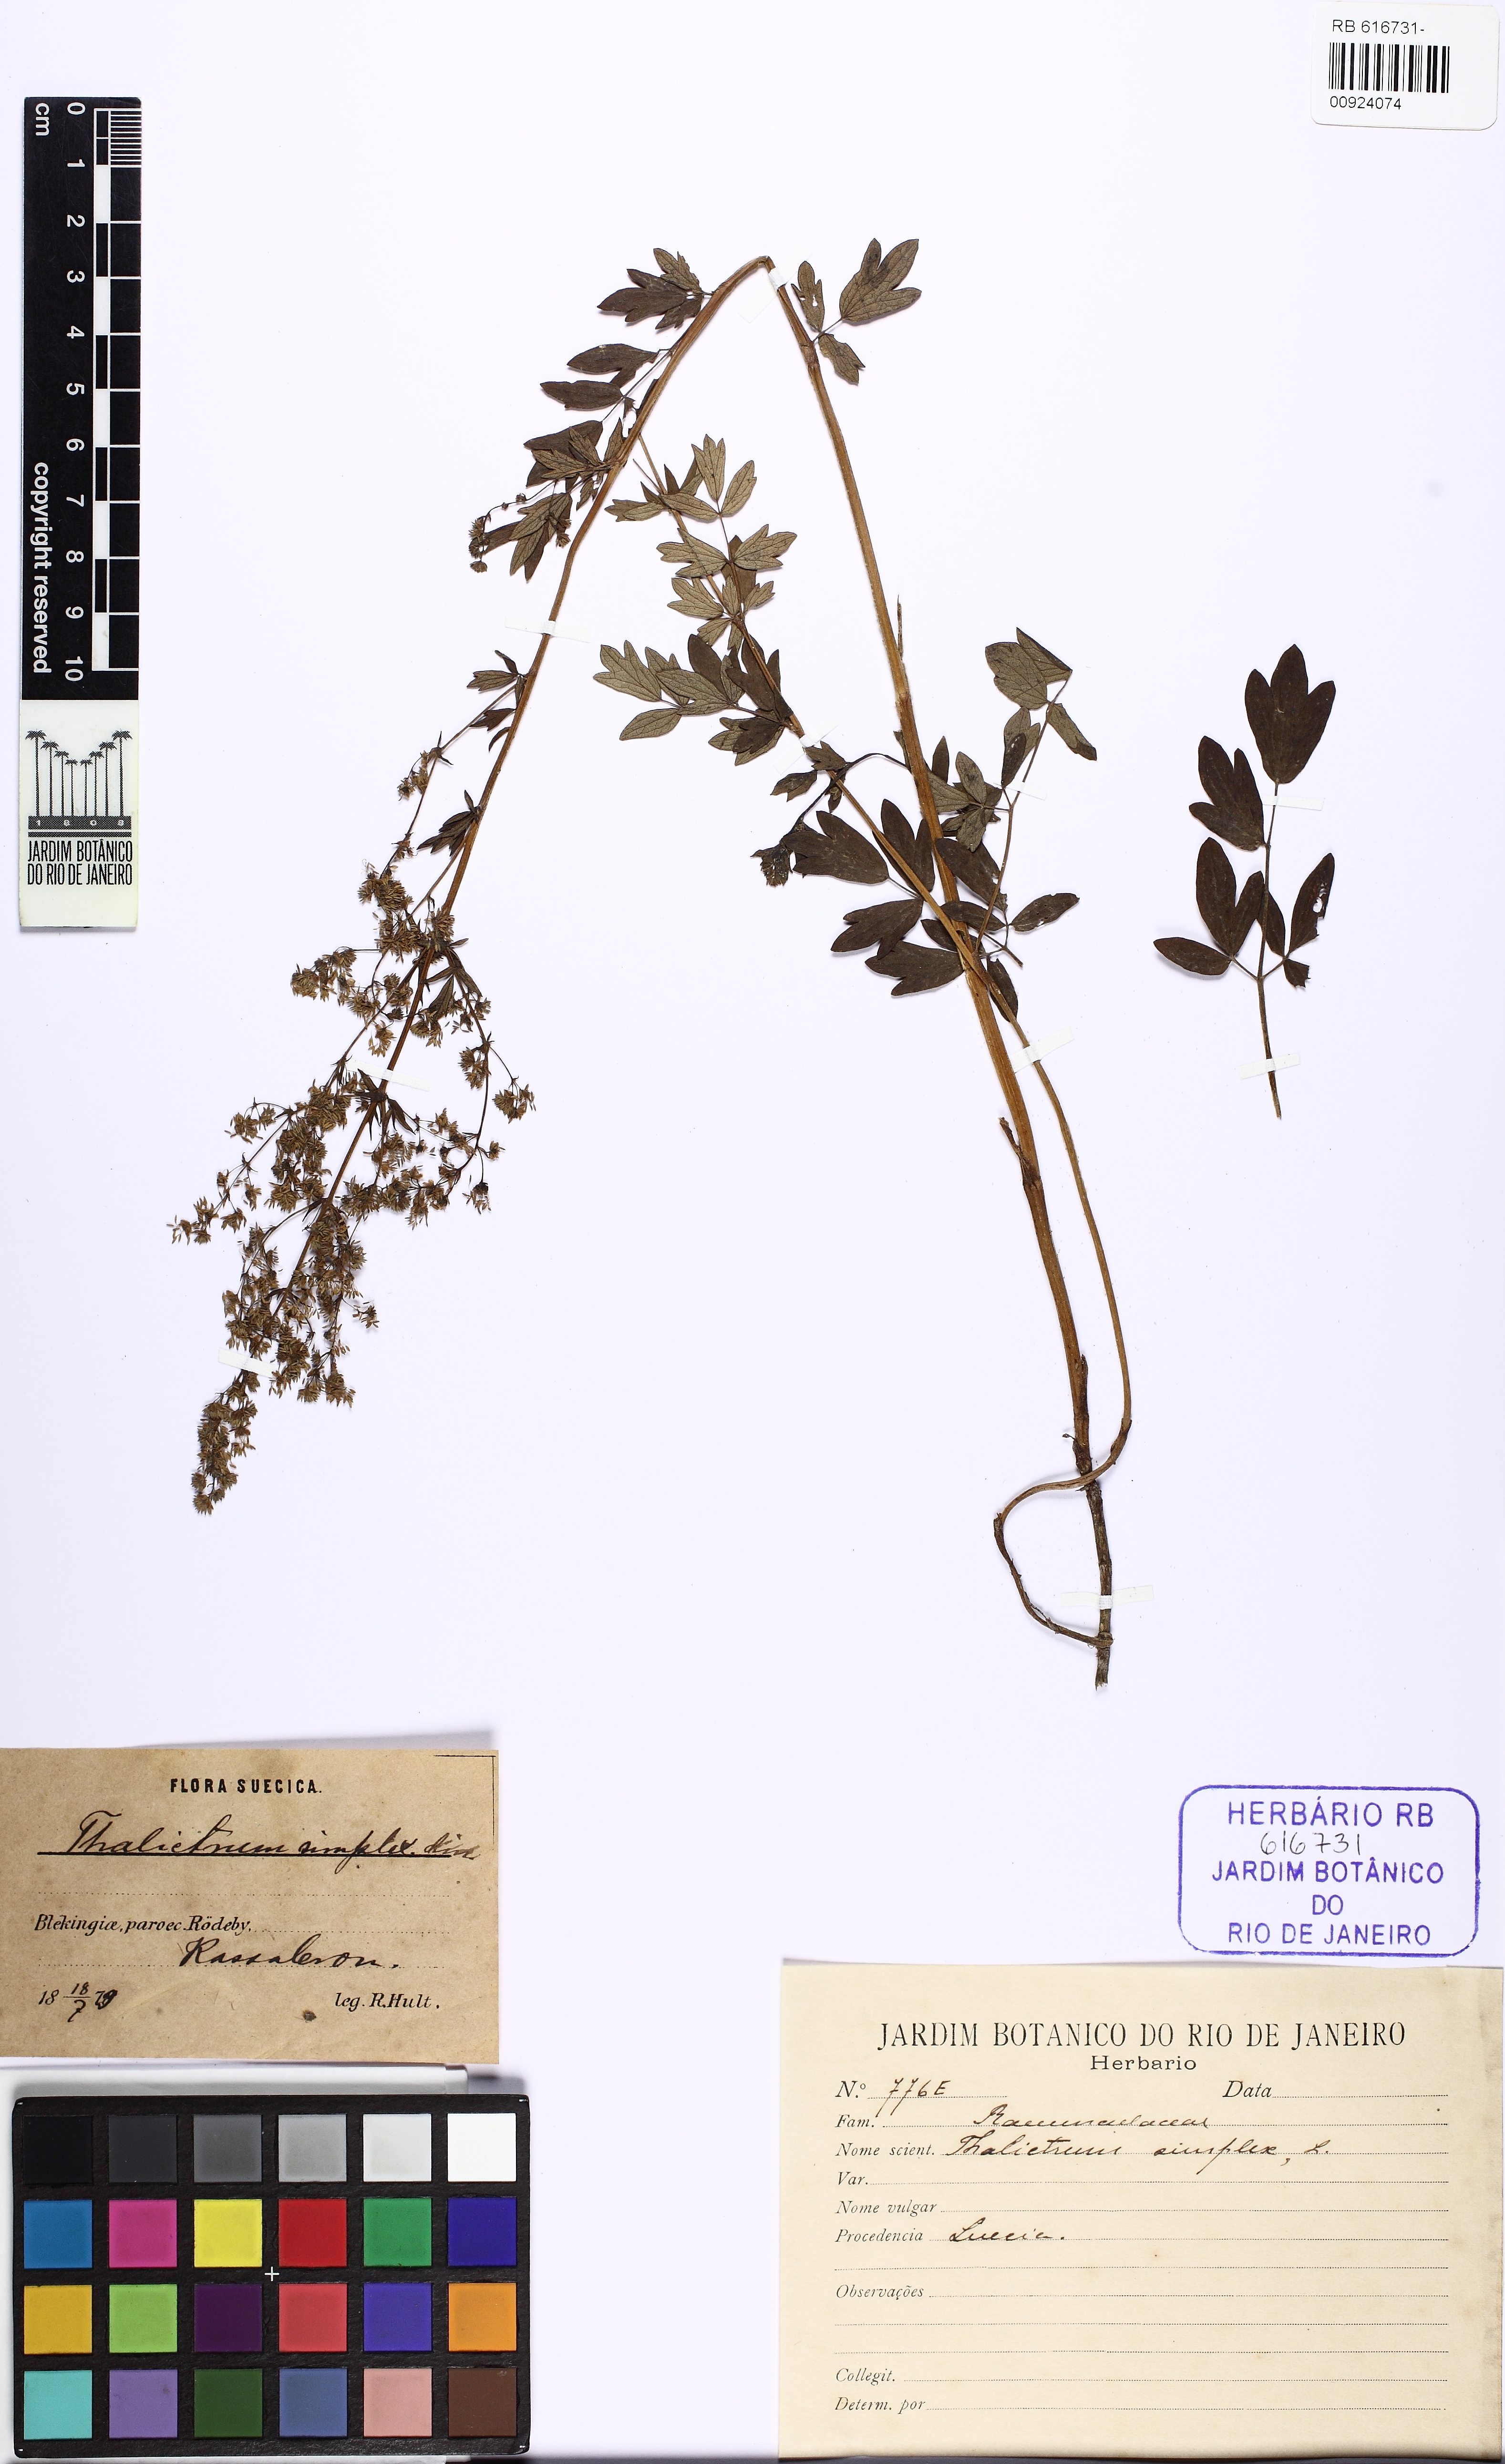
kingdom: Plantae
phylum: Tracheophyta
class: Magnoliopsida
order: Ranunculales
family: Ranunculaceae
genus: Thalictrum
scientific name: Thalictrum simplex
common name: Small meadow-rue
